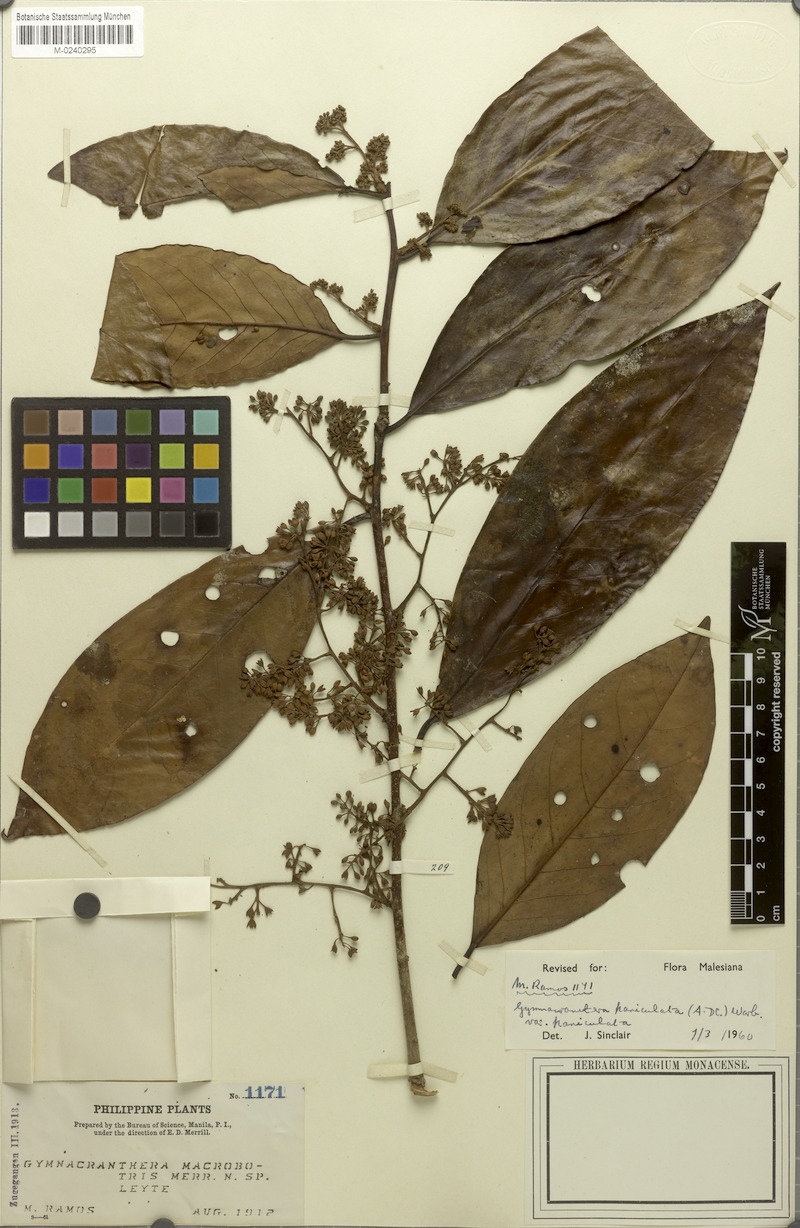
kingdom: Plantae
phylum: Tracheophyta
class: Magnoliopsida
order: Magnoliales
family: Myristicaceae
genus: Gymnacranthera
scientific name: Gymnacranthera farquhariana
